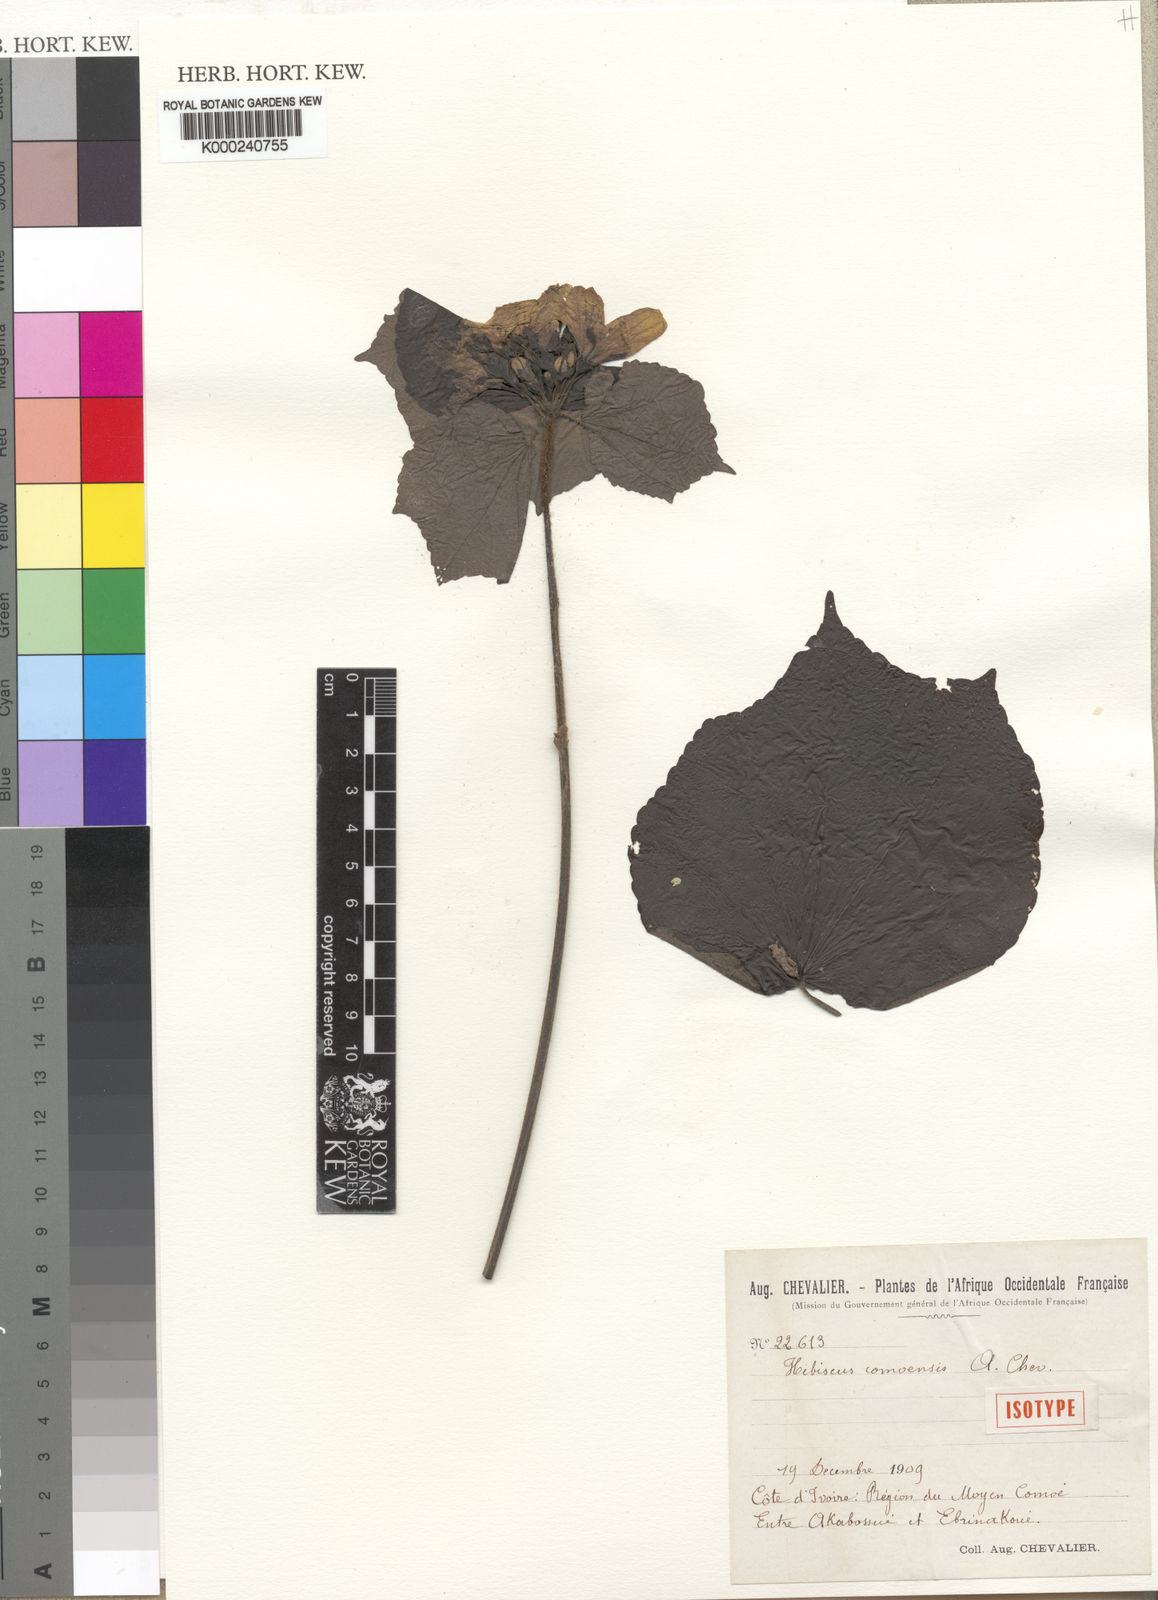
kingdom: Plantae
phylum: Tracheophyta
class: Magnoliopsida
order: Malvales
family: Malvaceae
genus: Hibiscus
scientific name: Hibiscus comoensis
